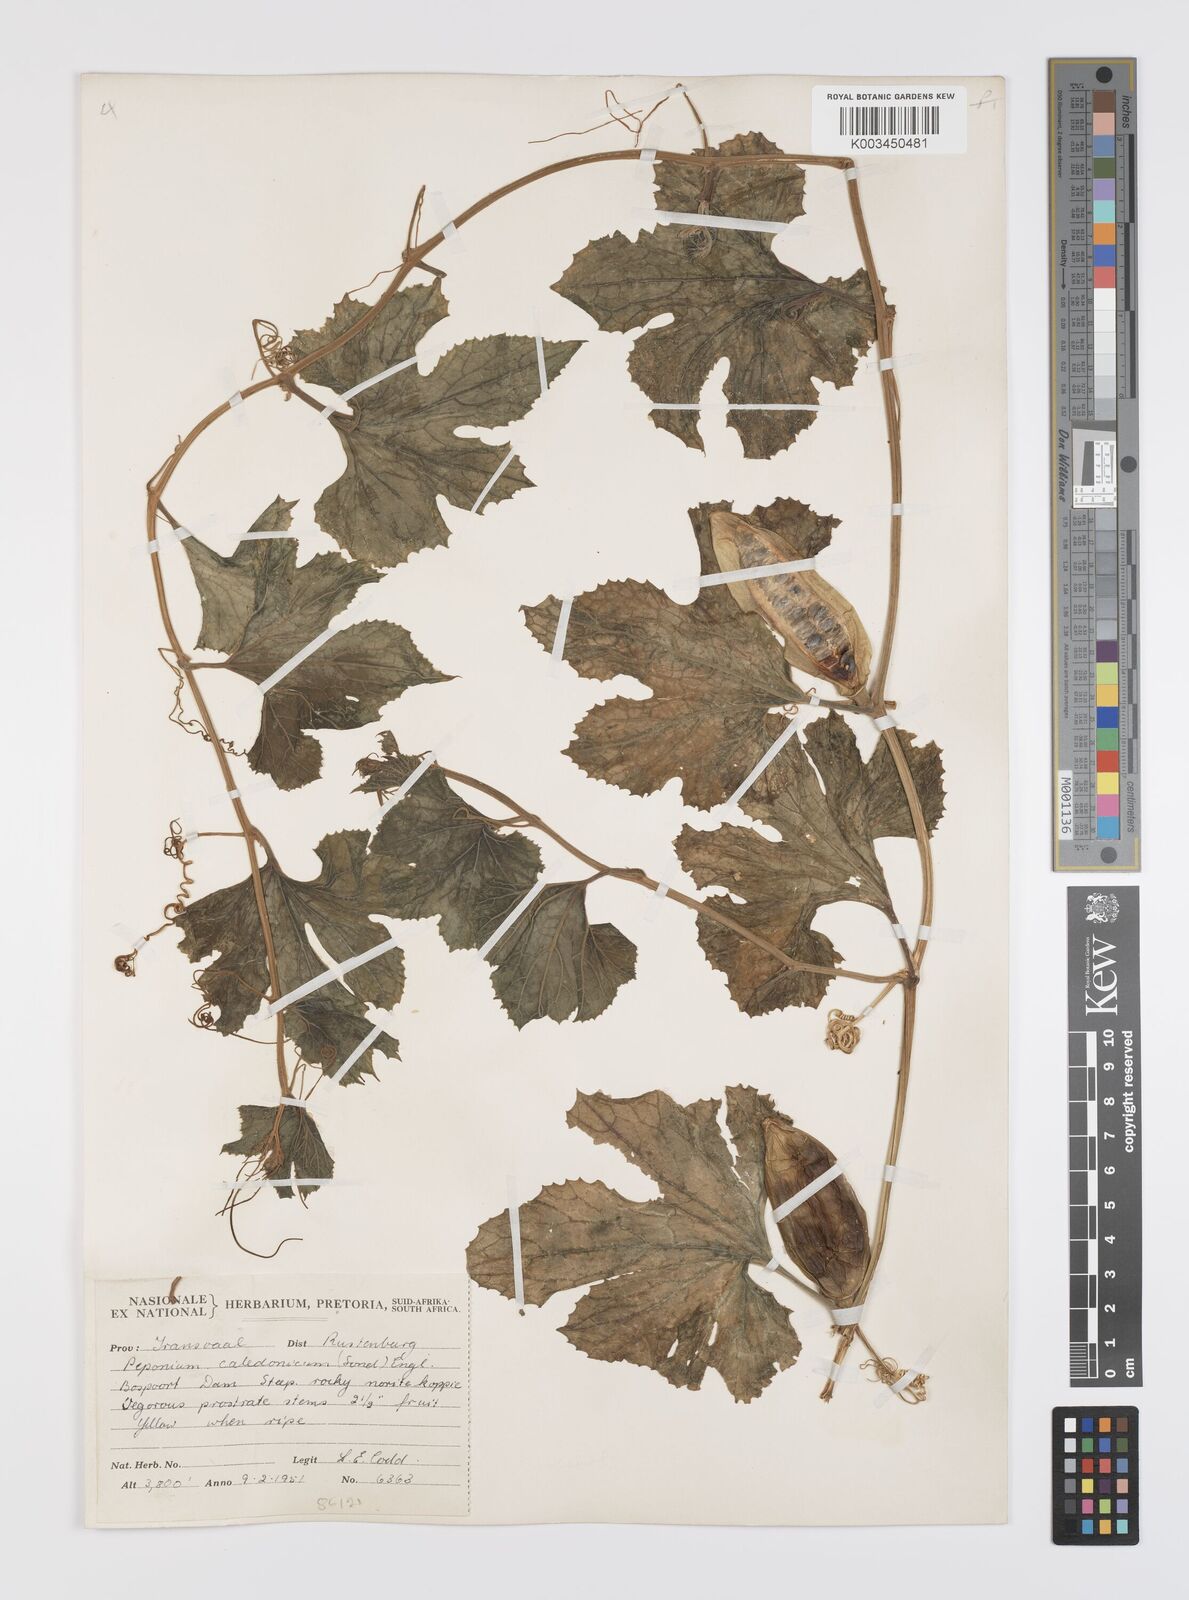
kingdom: Plantae
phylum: Tracheophyta
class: Magnoliopsida
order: Cucurbitales
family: Cucurbitaceae
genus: Peponium
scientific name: Peponium caledonicum
